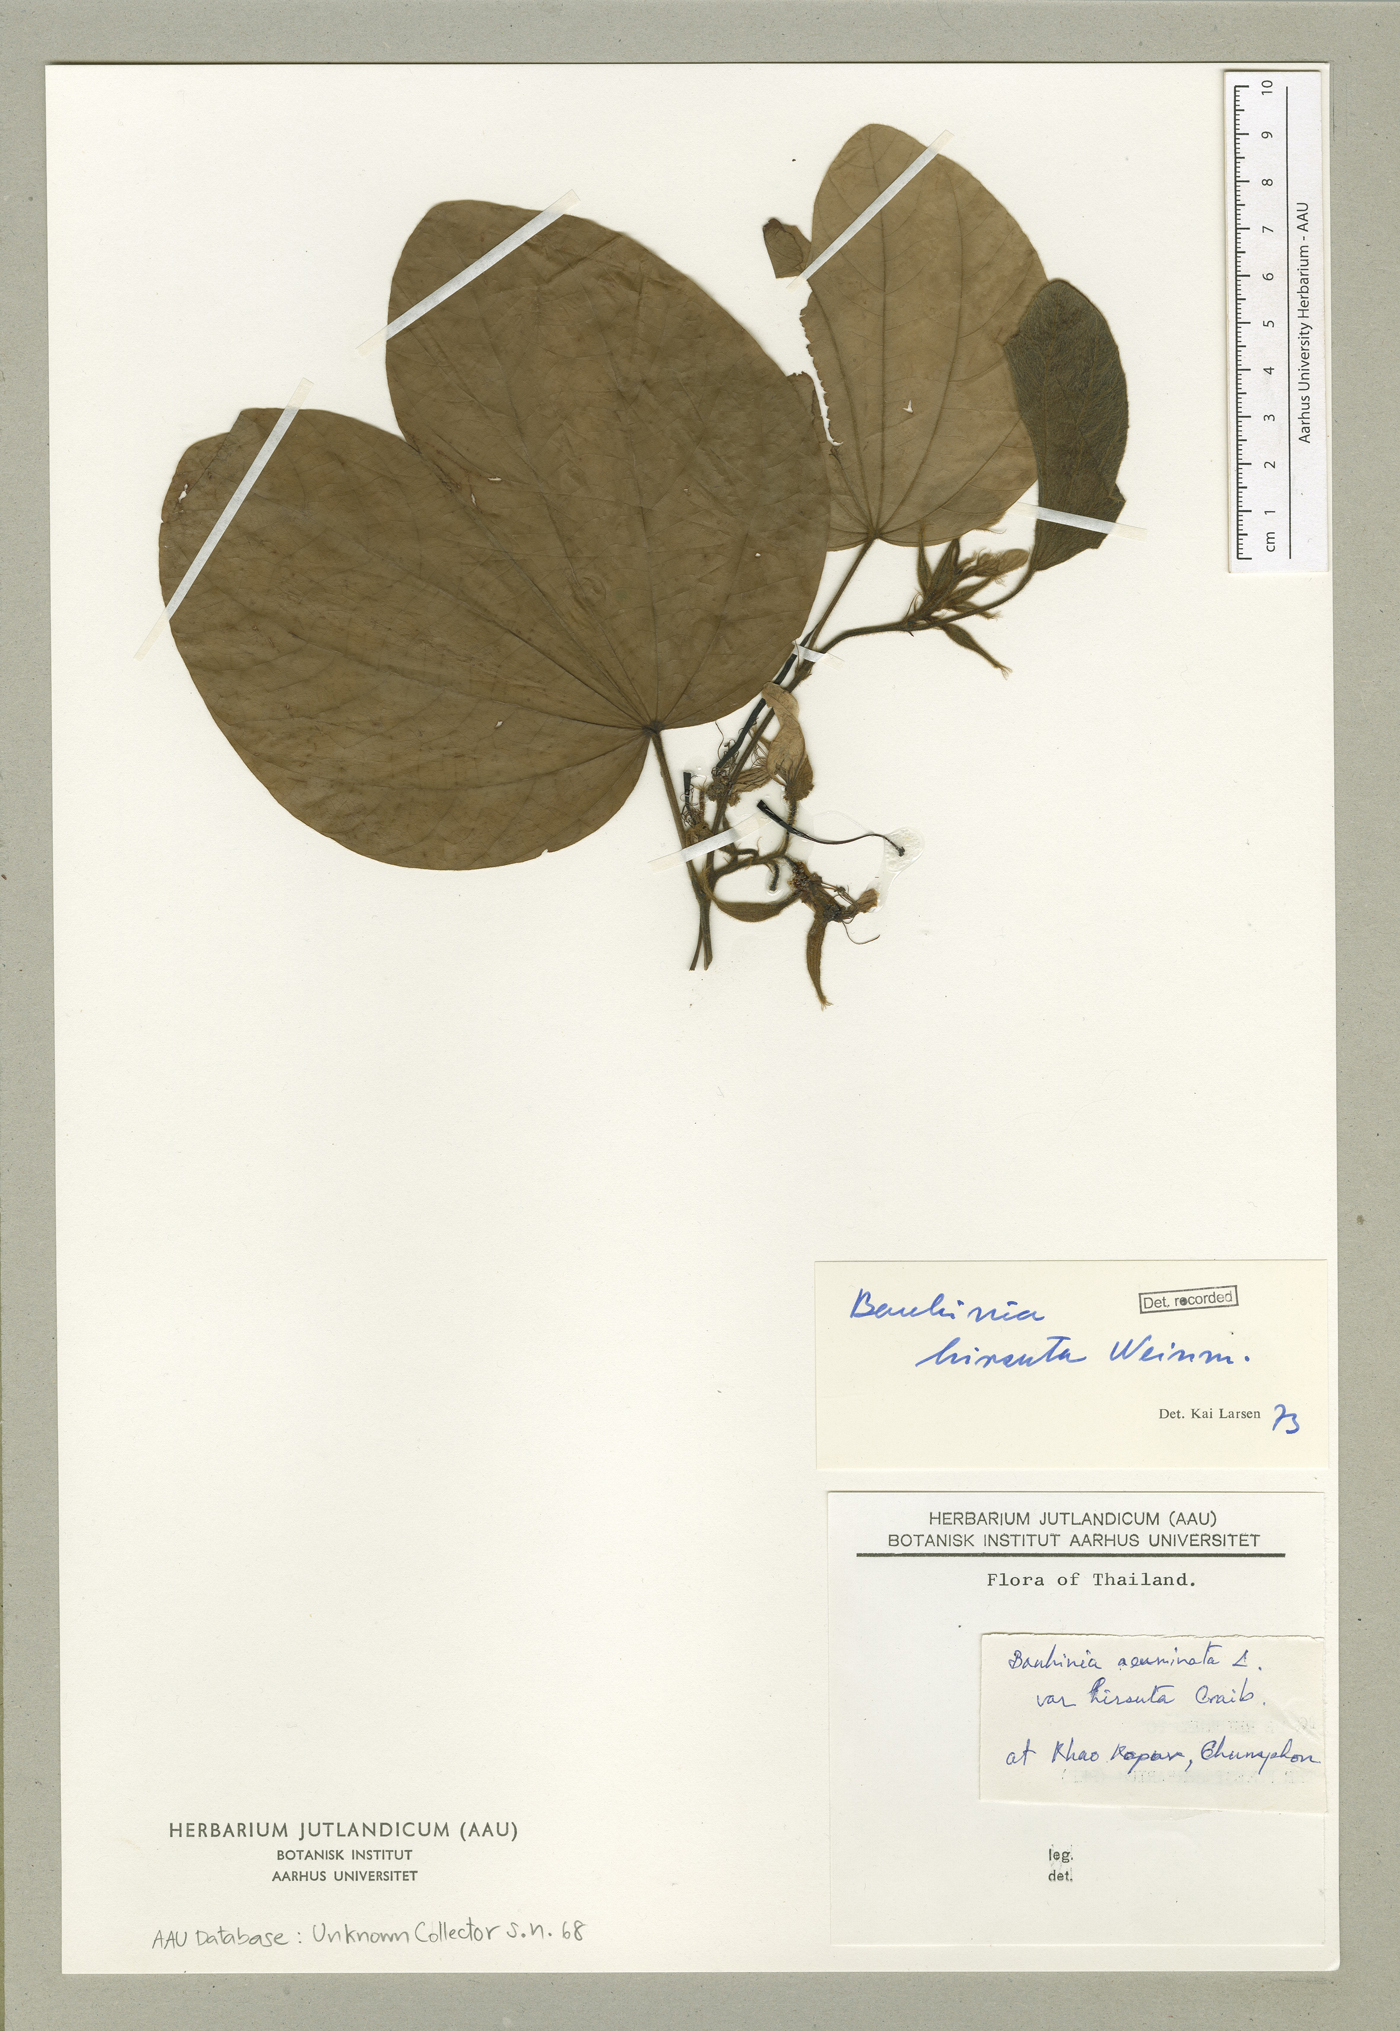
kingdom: Plantae
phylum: Tracheophyta
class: Magnoliopsida
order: Fabales
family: Fabaceae
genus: Bauhinia
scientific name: Bauhinia hirsuta
